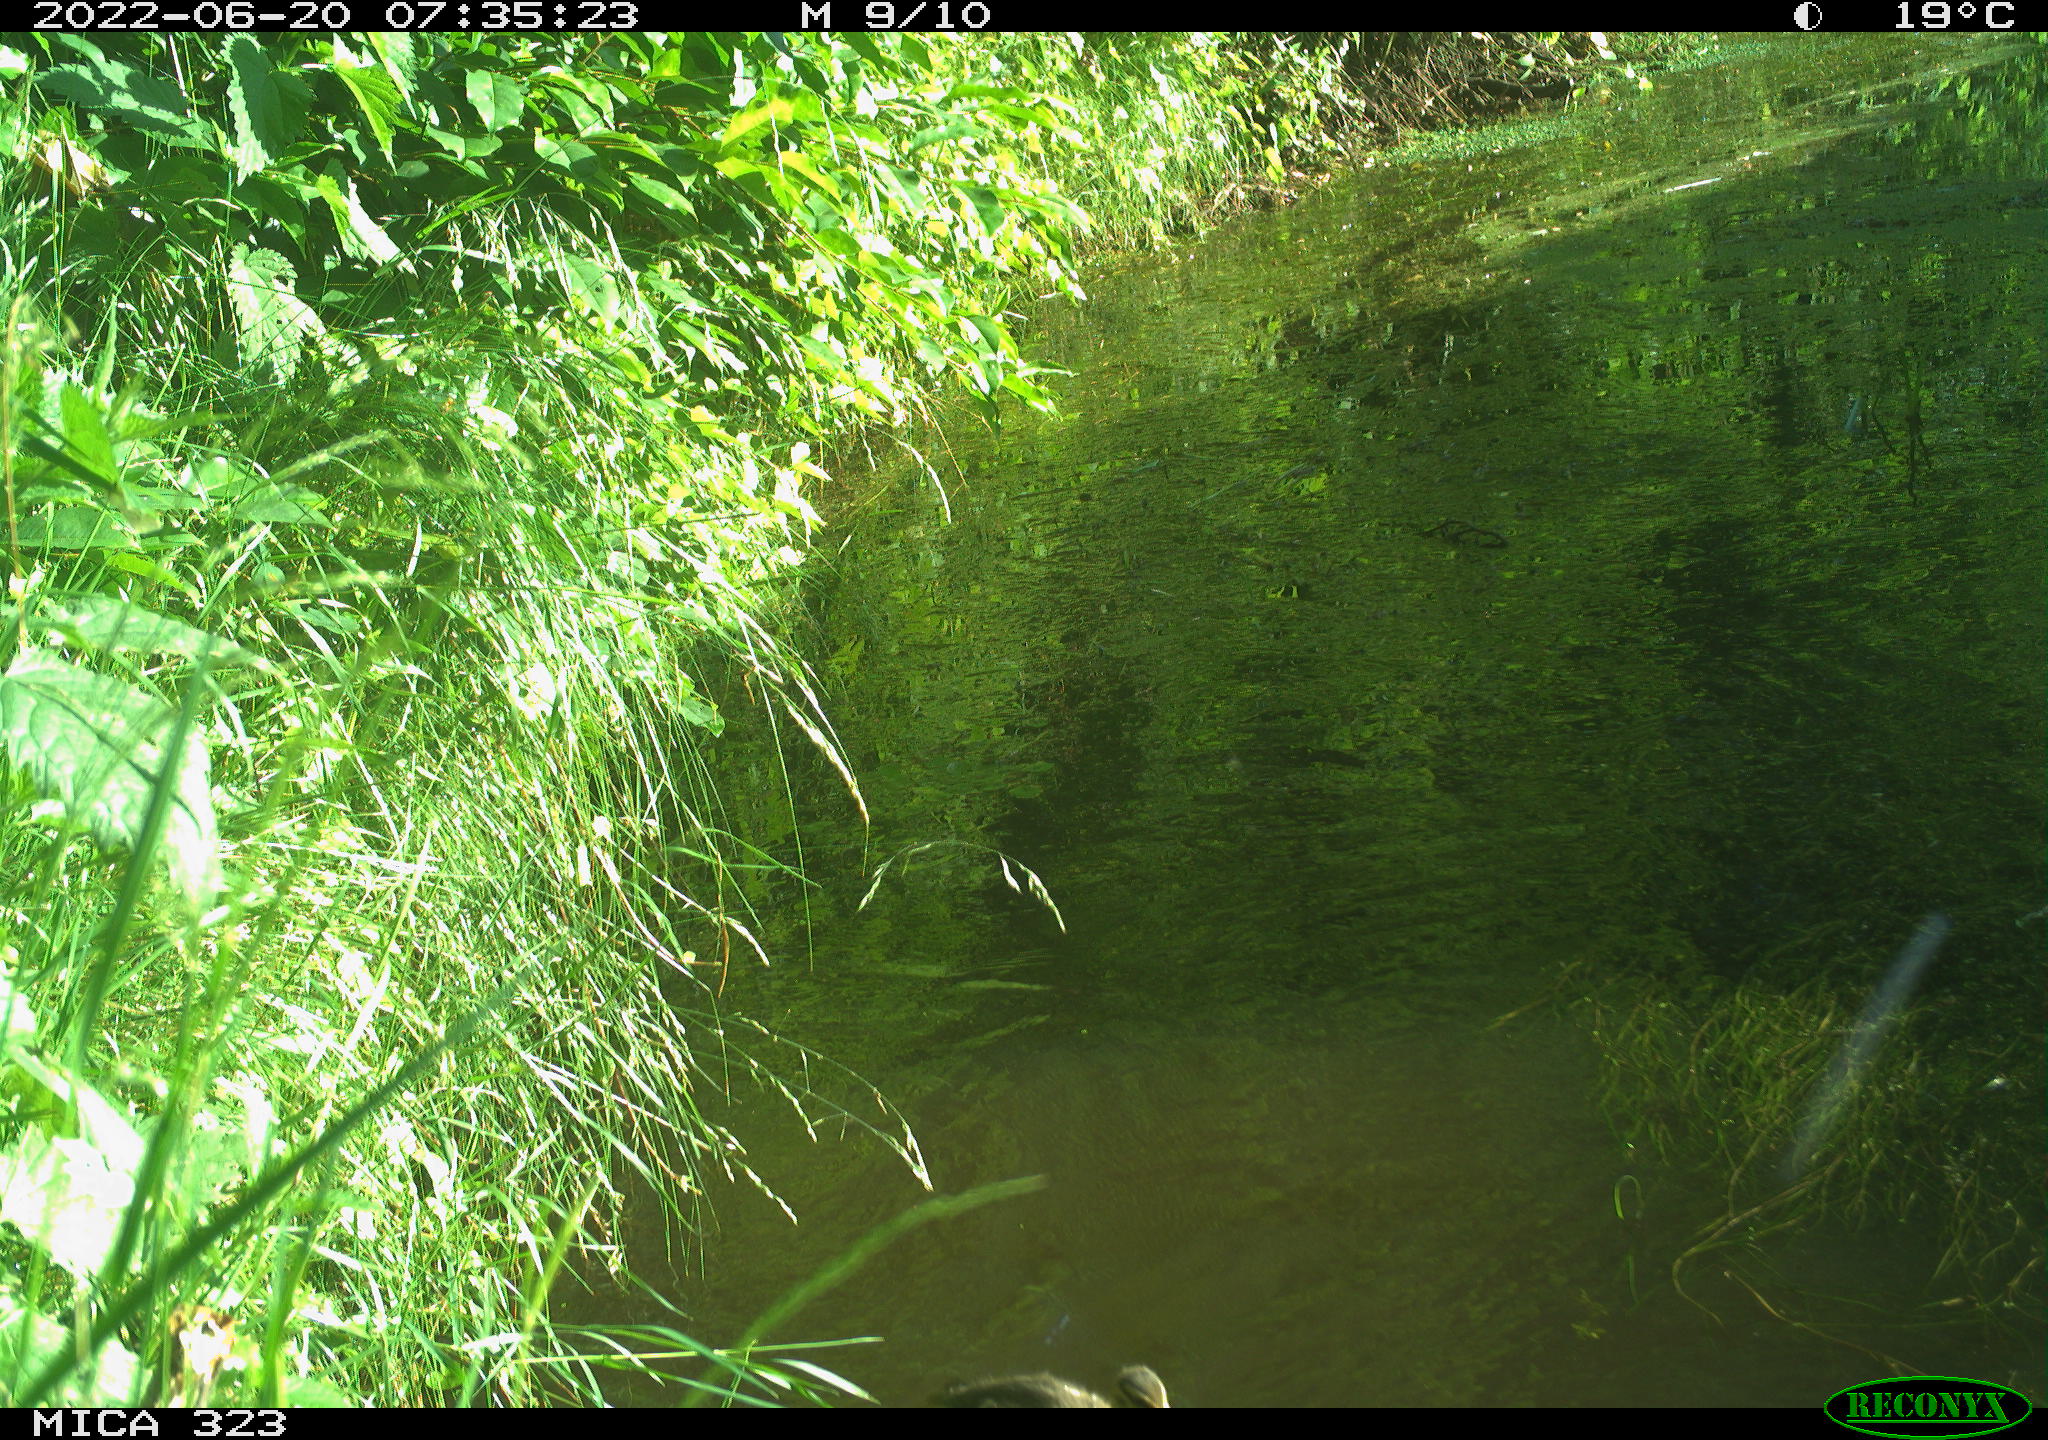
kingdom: Animalia
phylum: Chordata
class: Aves
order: Anseriformes
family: Anatidae
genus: Anas
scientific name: Anas
